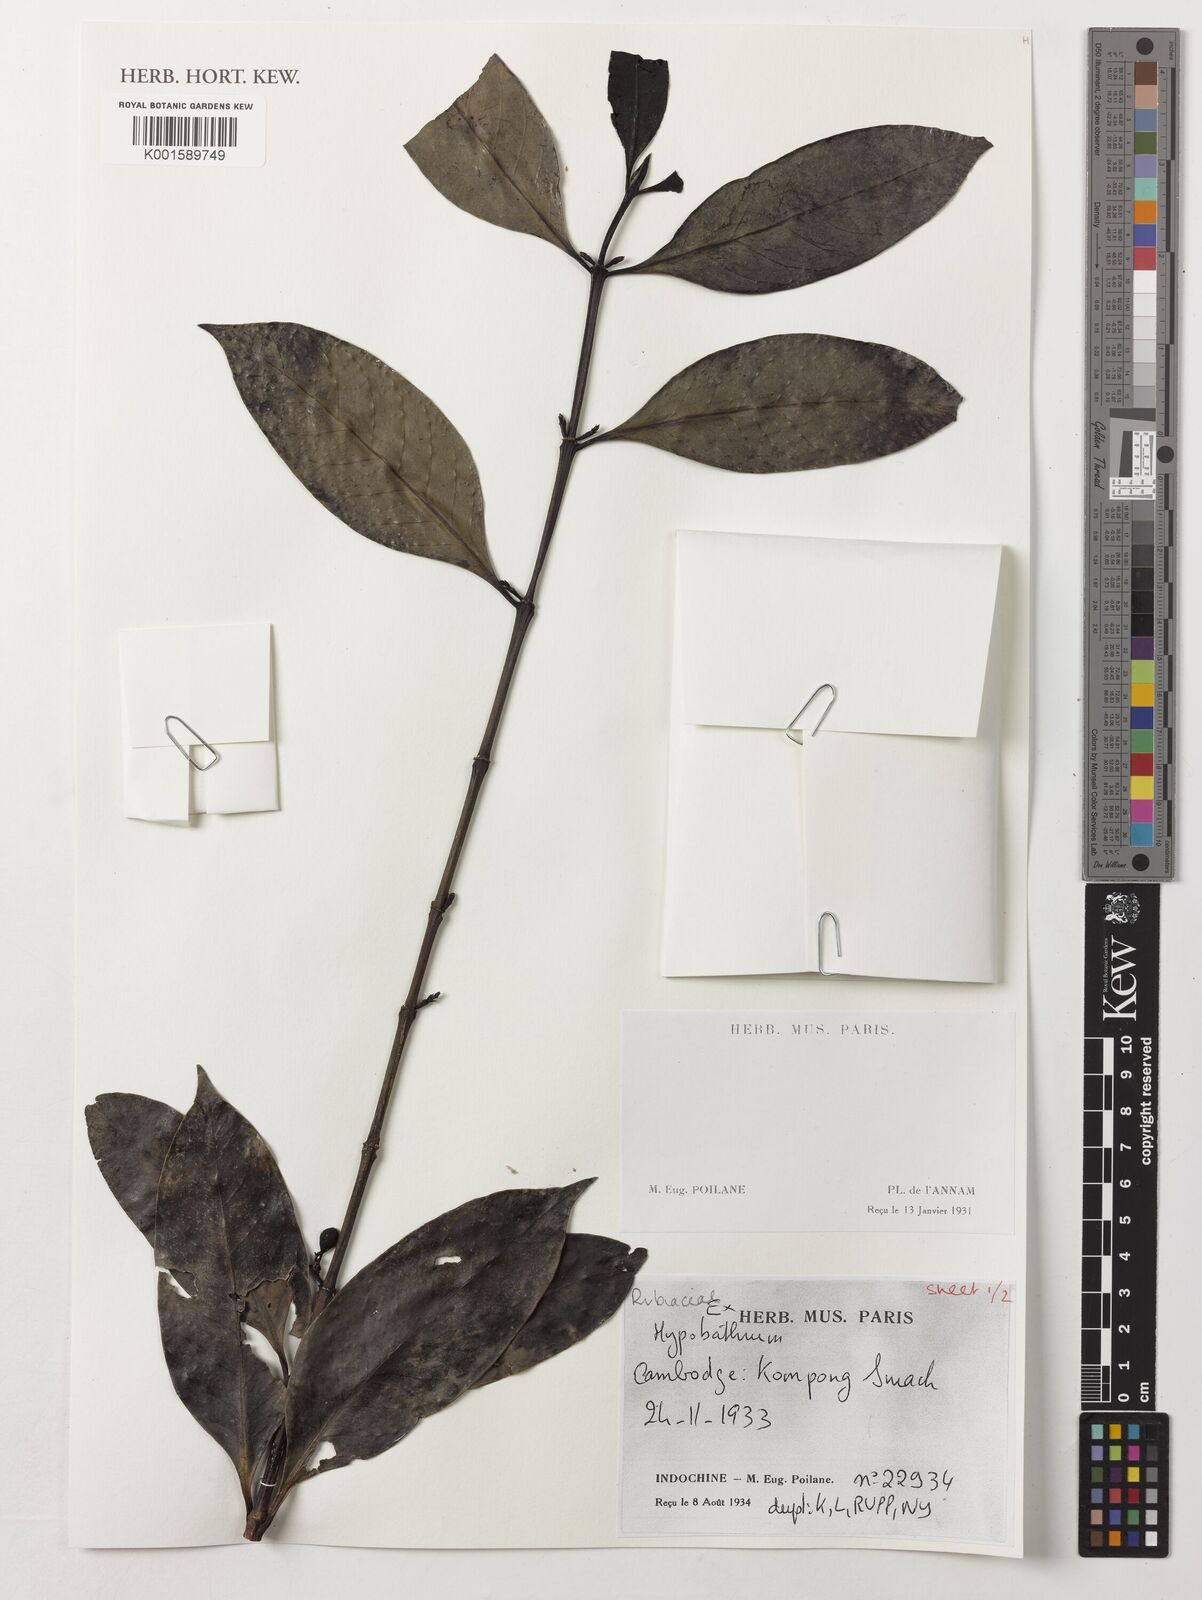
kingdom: Plantae
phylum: Tracheophyta
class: Magnoliopsida
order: Gentianales
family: Rubiaceae
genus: Hypobathrum
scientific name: Hypobathrum
